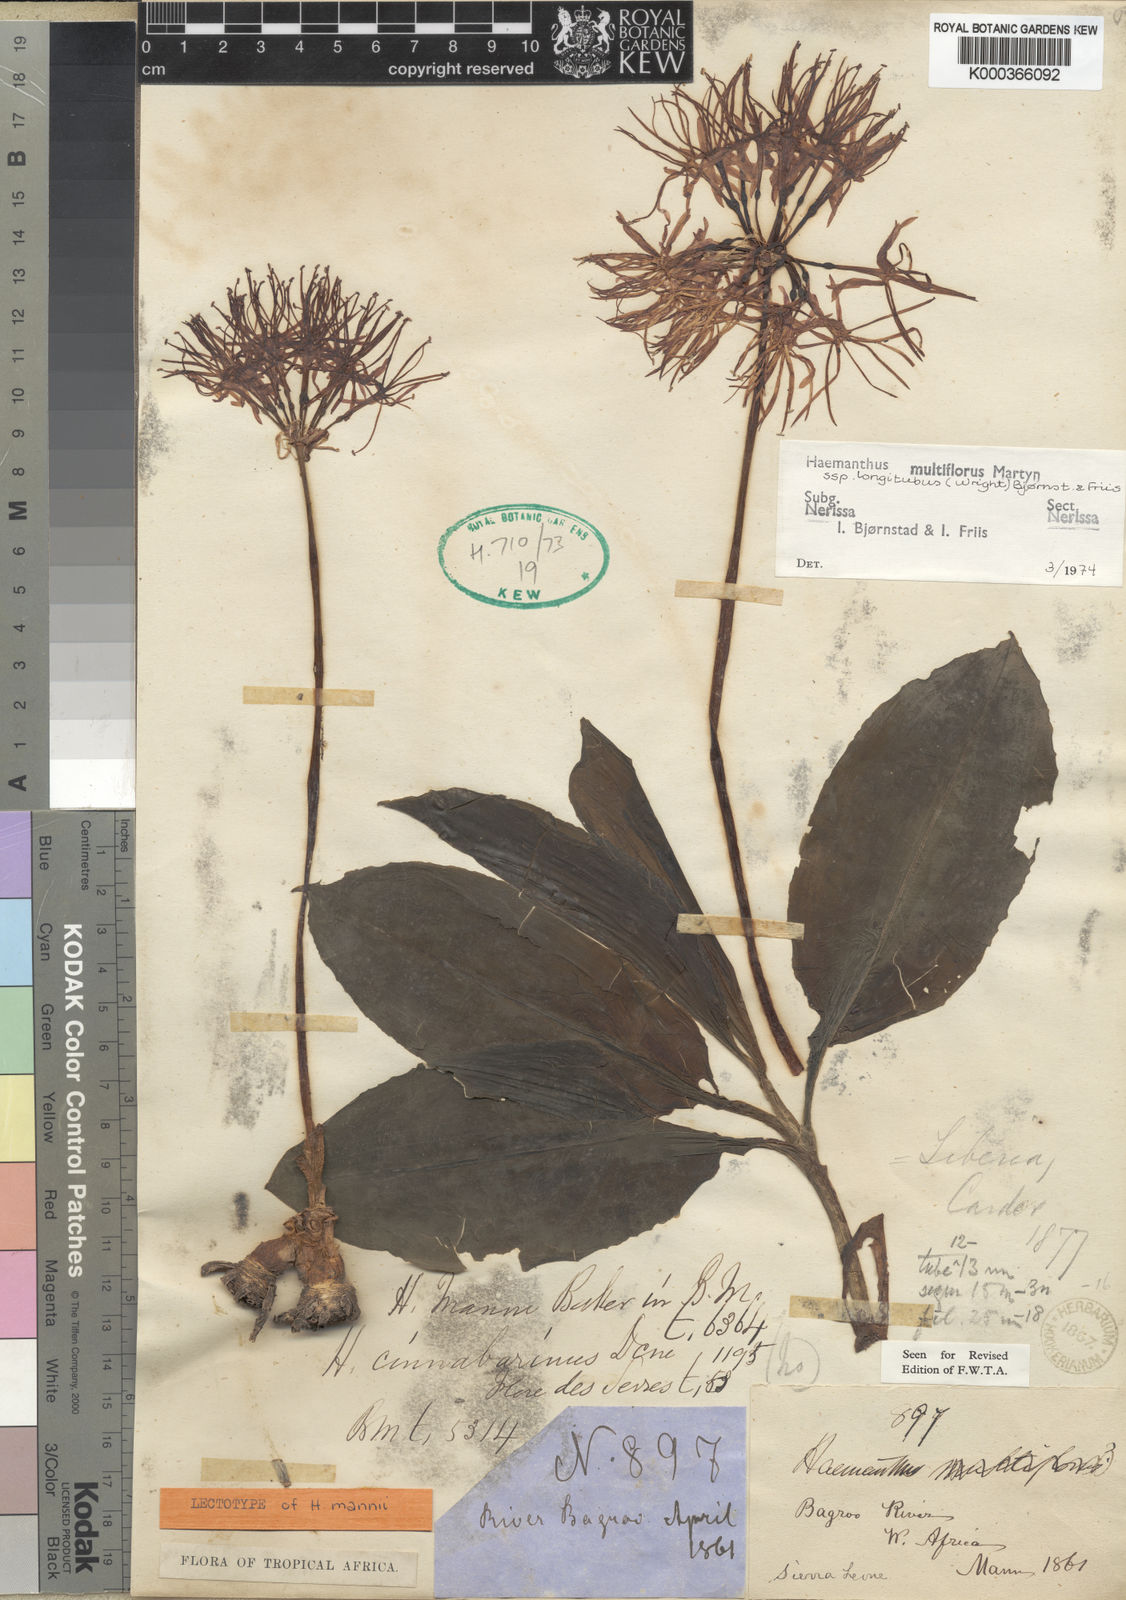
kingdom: Plantae
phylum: Tracheophyta
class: Liliopsida
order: Asparagales
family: Amaryllidaceae
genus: Scadoxus
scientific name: Scadoxus multiflorus
